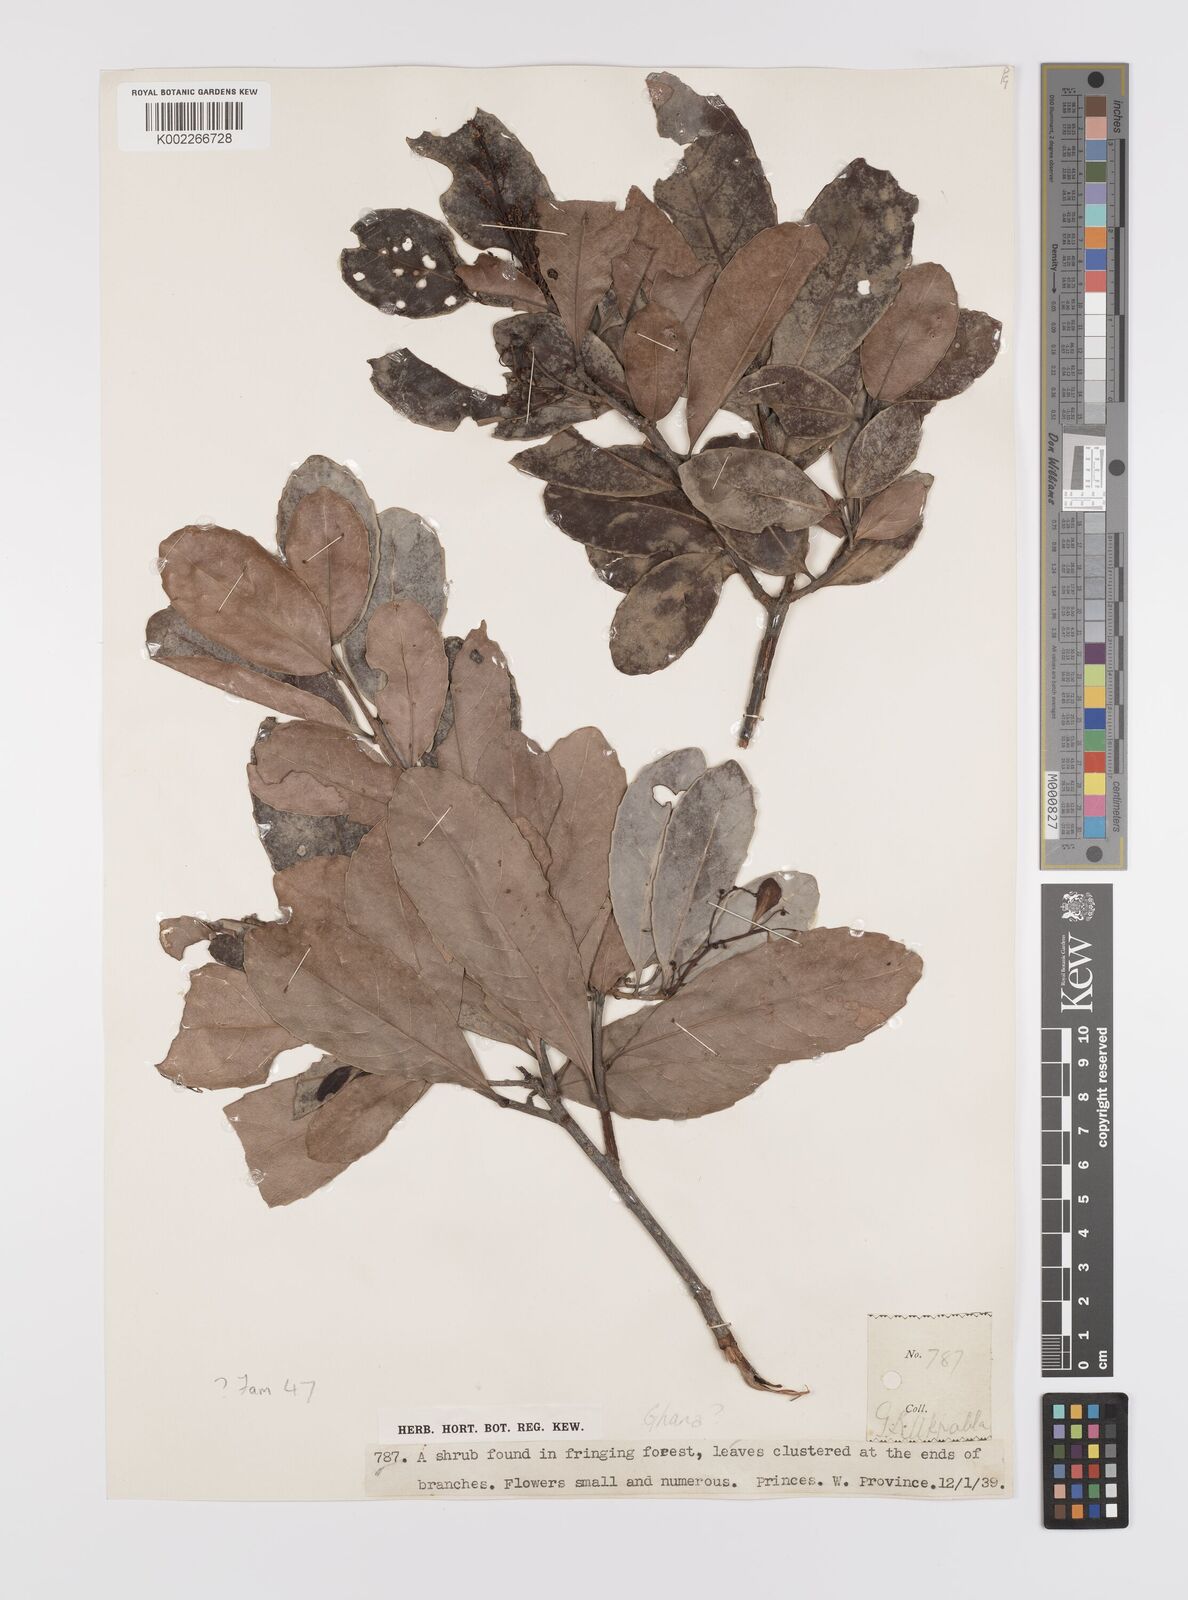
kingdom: Plantae
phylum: Tracheophyta
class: Magnoliopsida
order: Celastrales
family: Celastraceae
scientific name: Celastraceae
